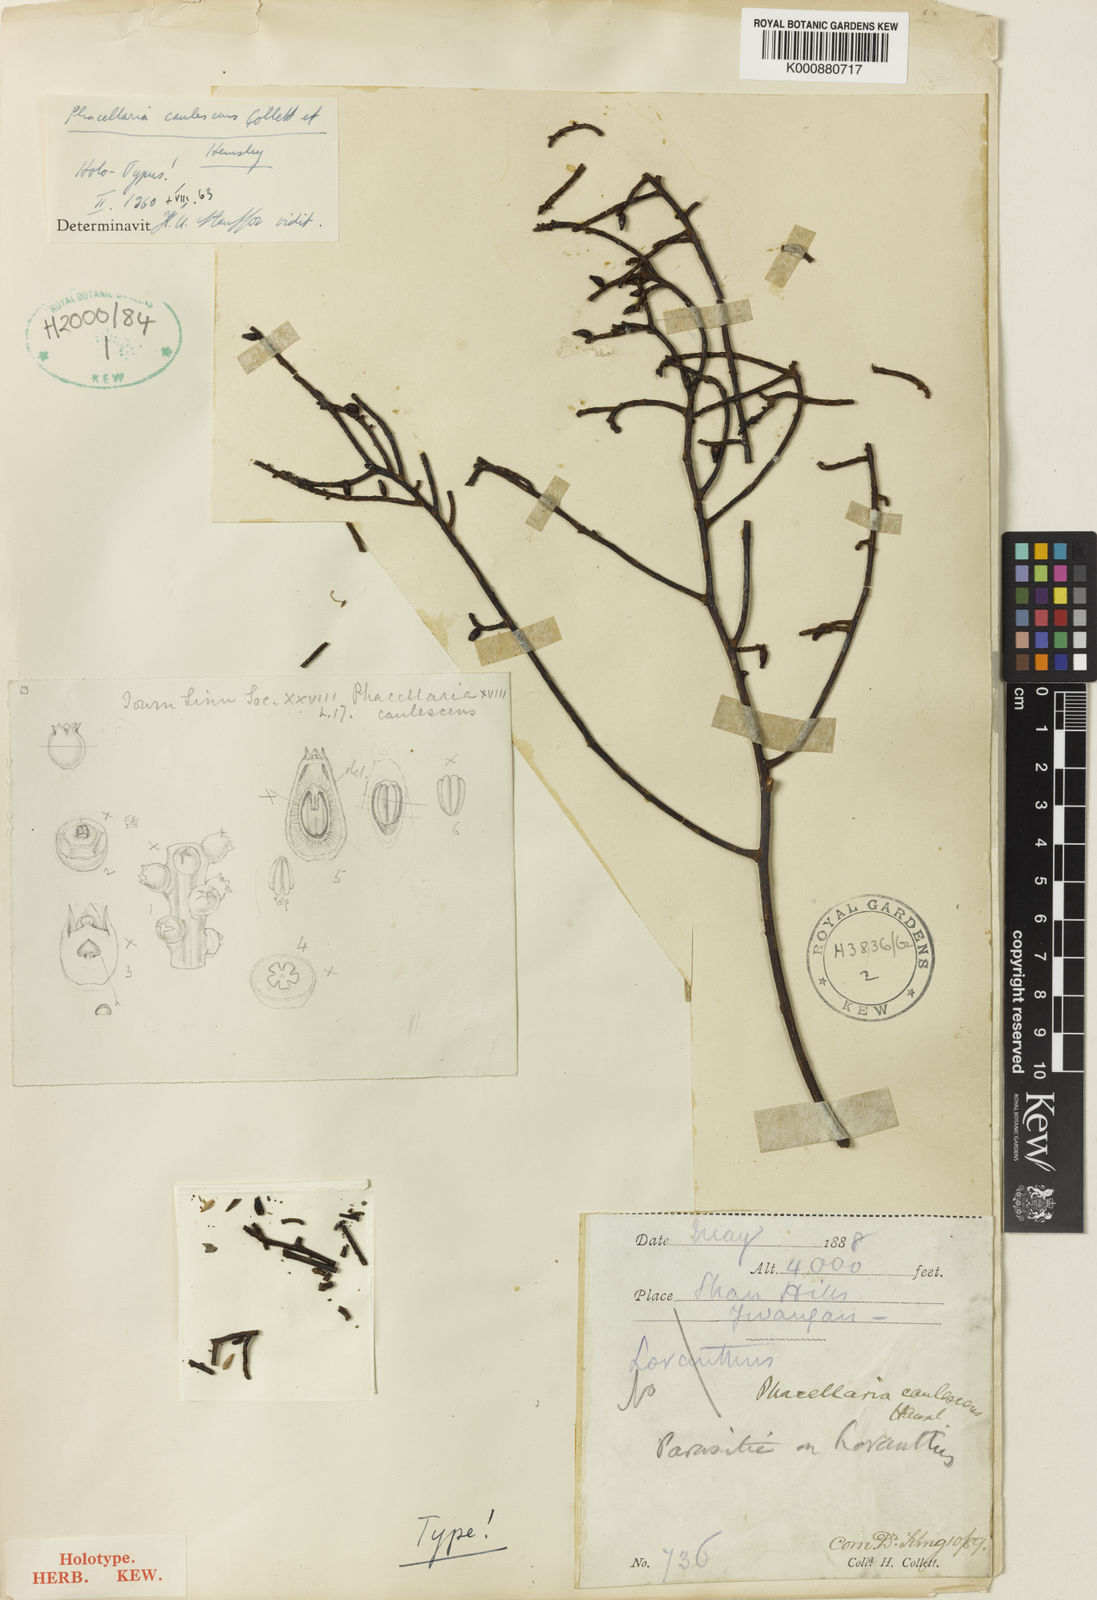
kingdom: Plantae
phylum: Tracheophyta
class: Magnoliopsida
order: Santalales
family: Amphorogynaceae
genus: Phacellaria
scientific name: Phacellaria caulescens
